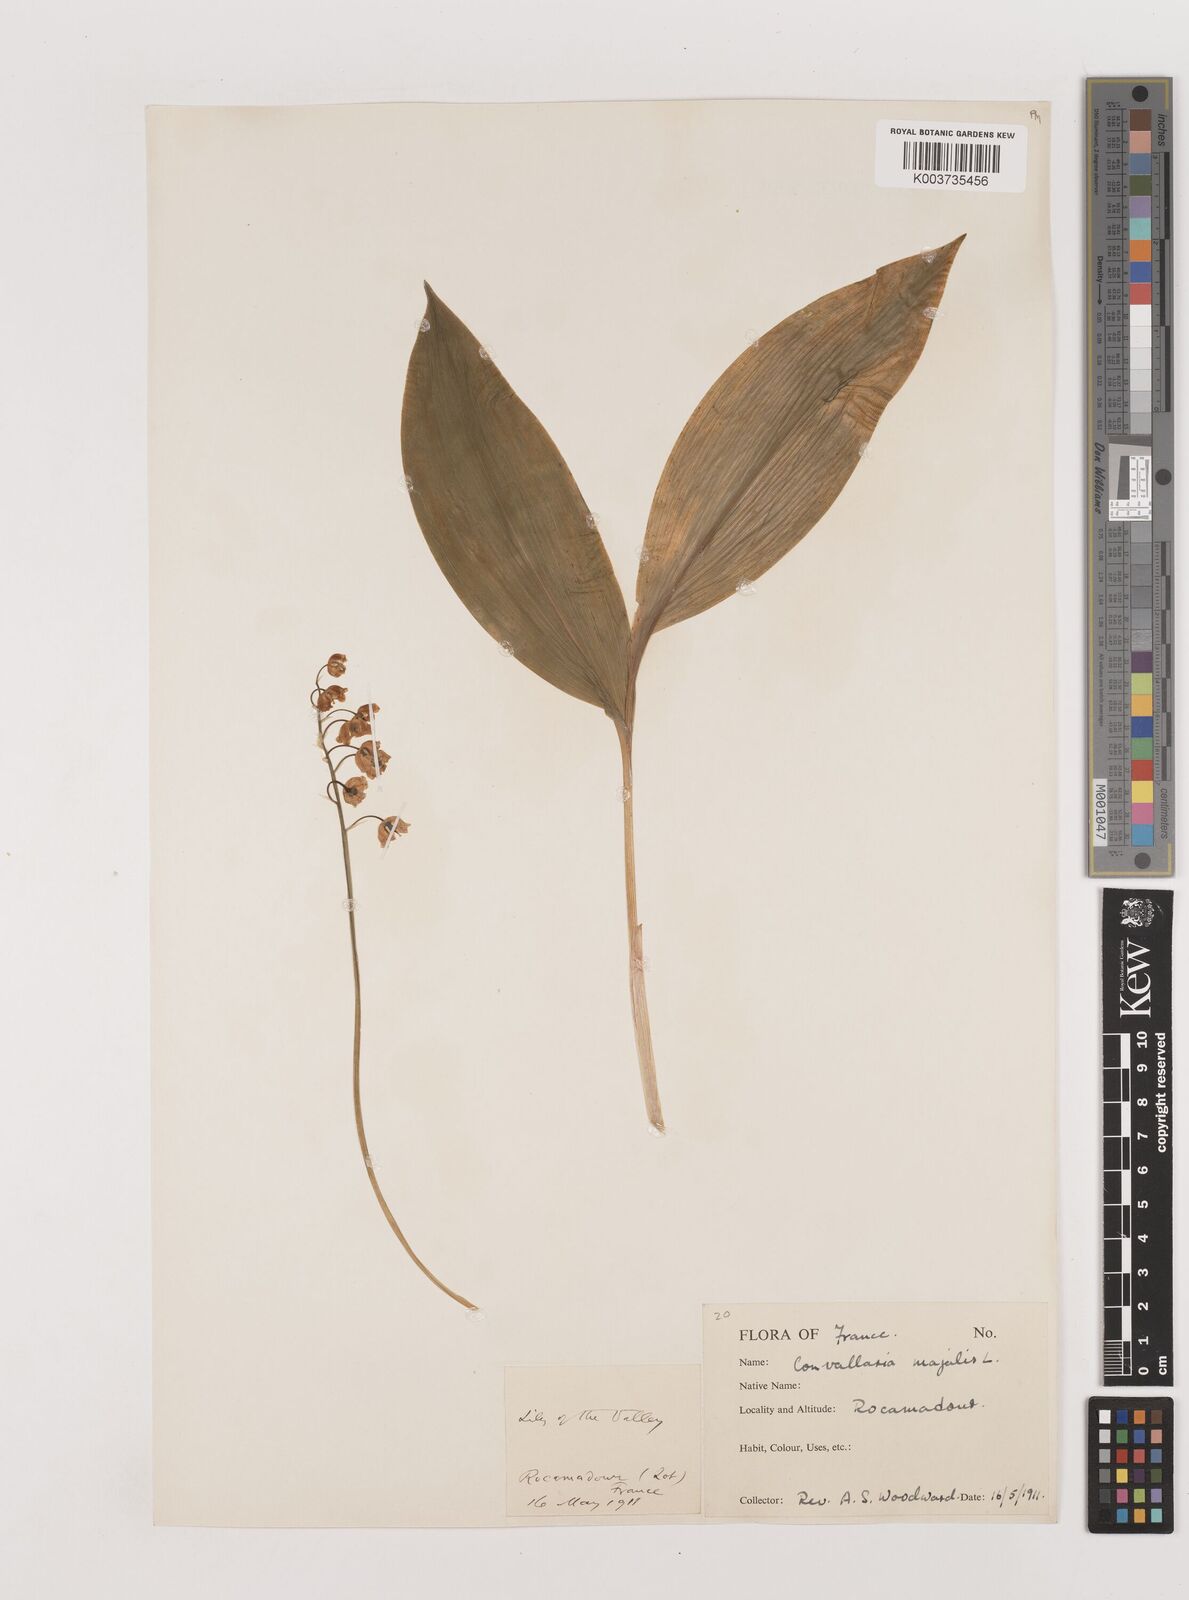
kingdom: Plantae
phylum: Tracheophyta
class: Liliopsida
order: Asparagales
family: Asparagaceae
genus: Convallaria
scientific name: Convallaria majalis
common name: Lily-of-the-valley
